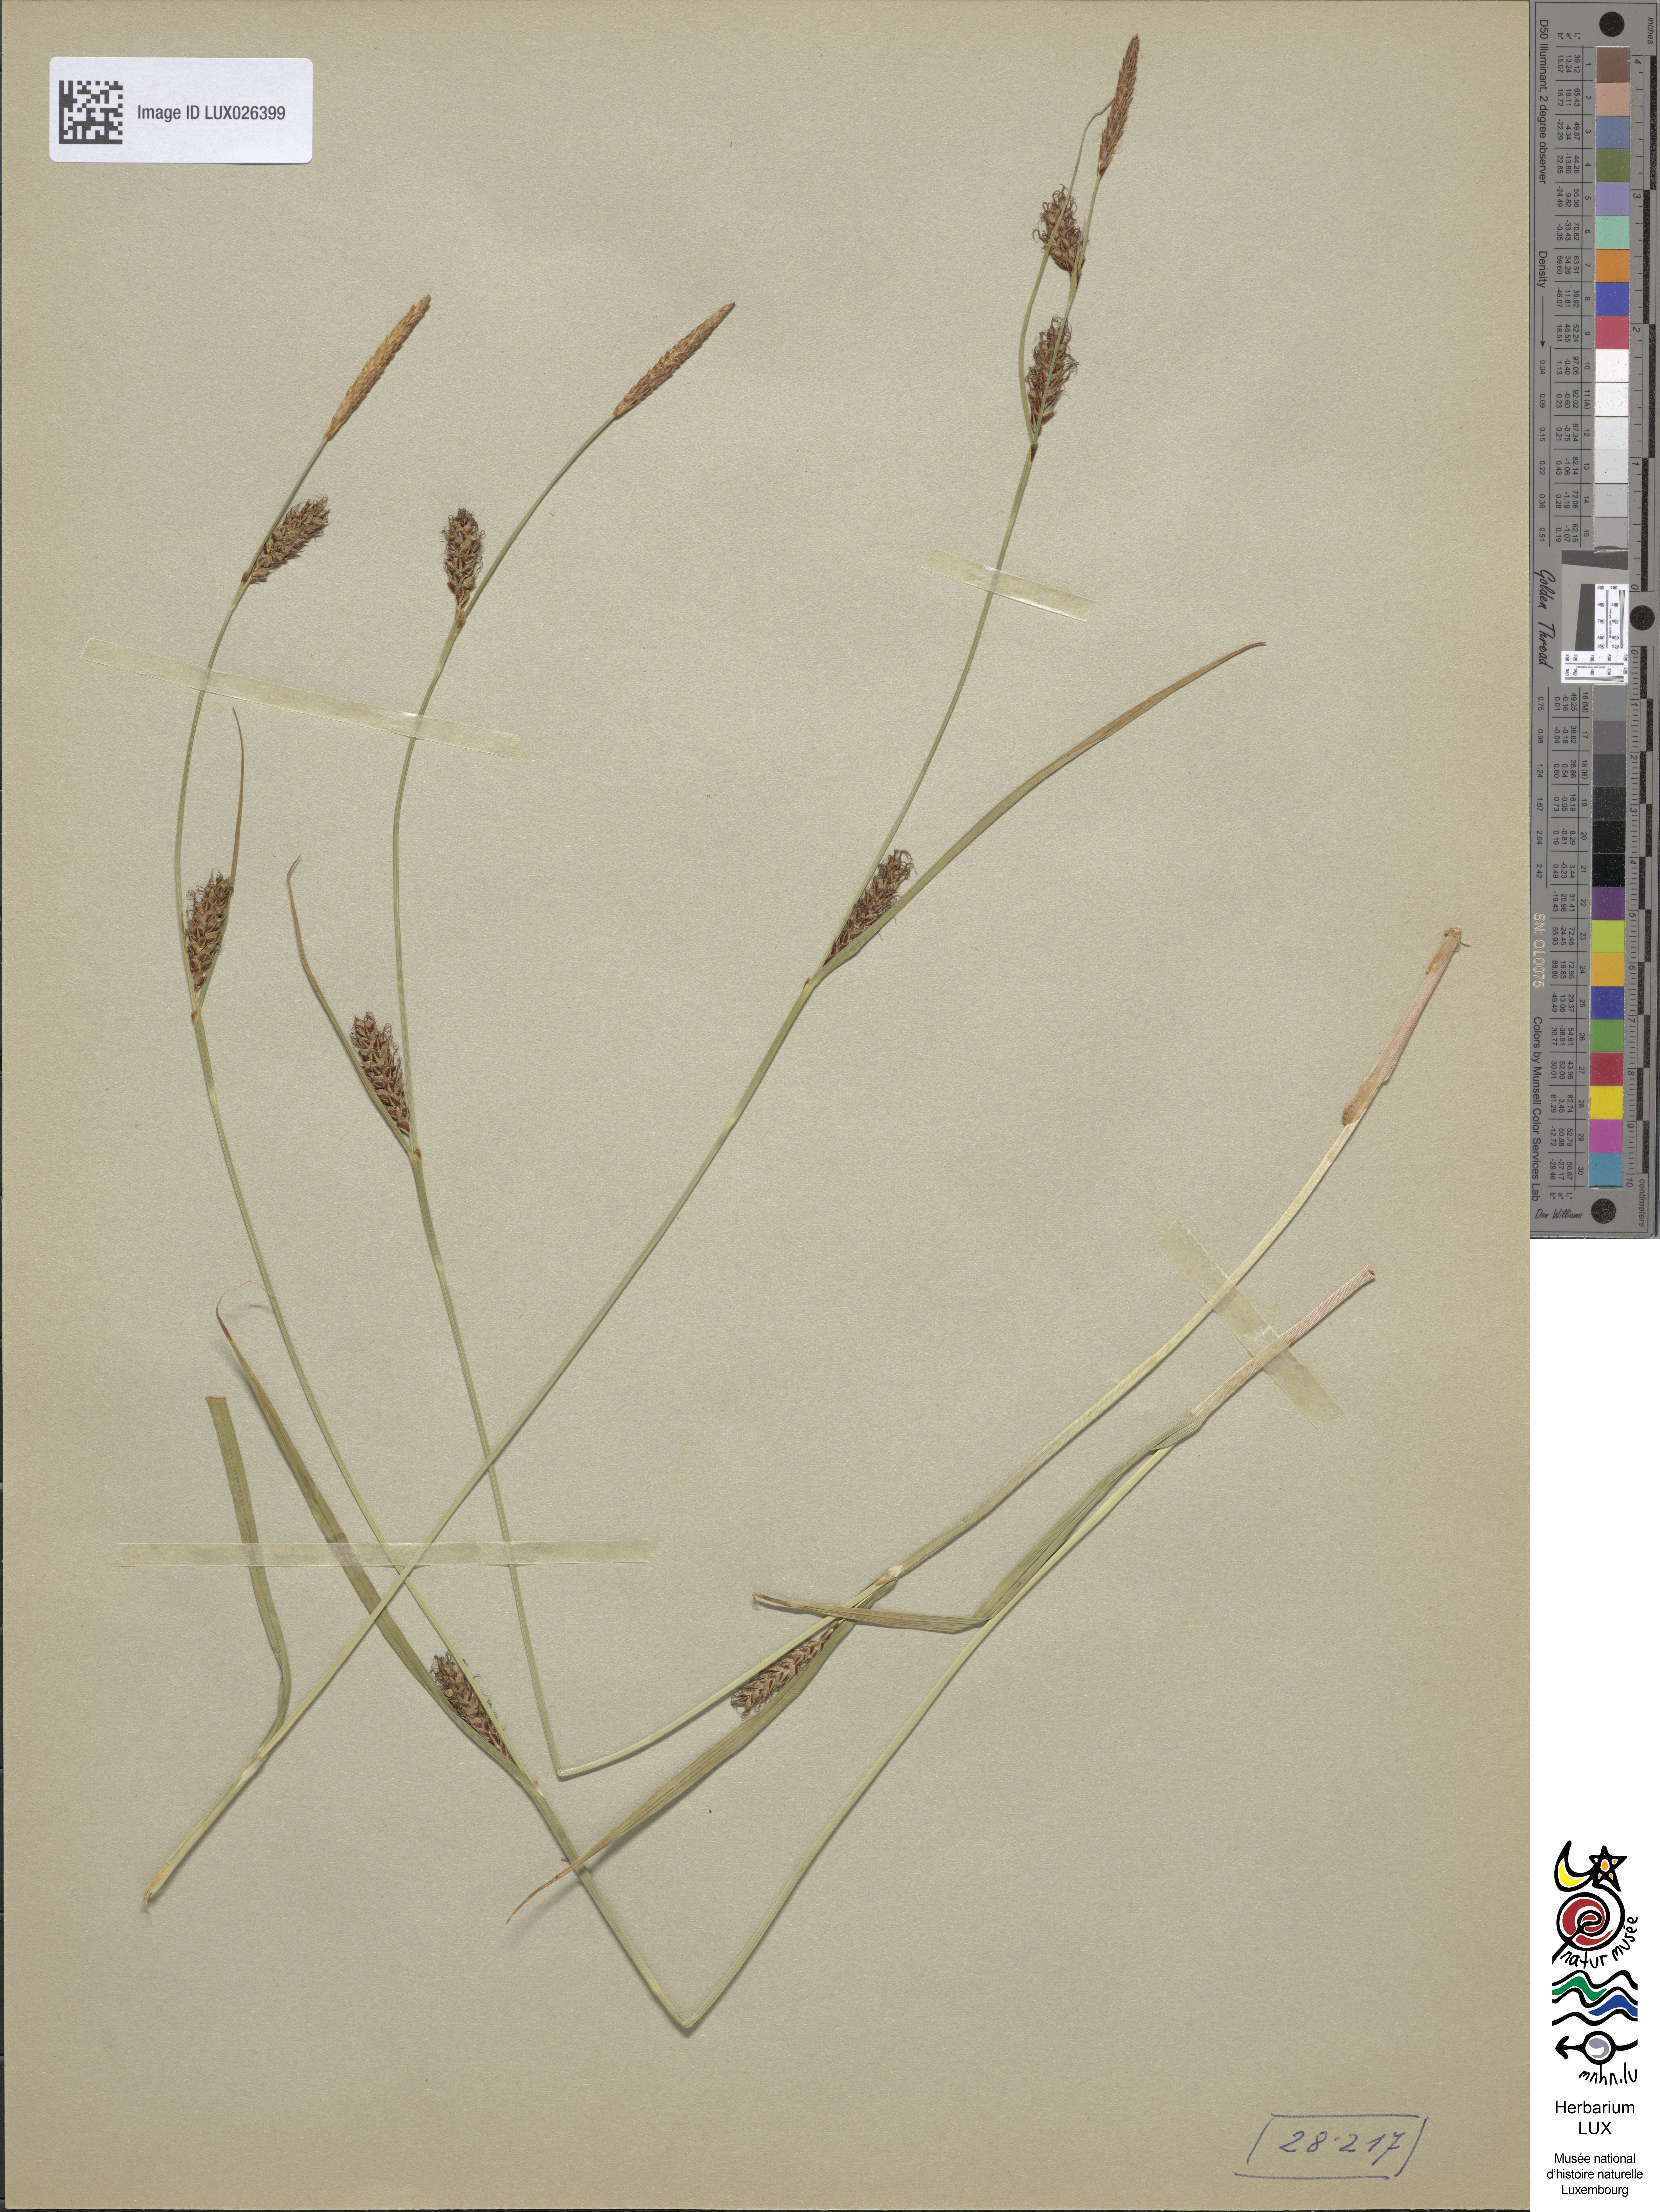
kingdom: Plantae
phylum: Tracheophyta
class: Liliopsida
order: Poales
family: Cyperaceae
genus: Carex
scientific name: Carex distans
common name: Distant sedge
